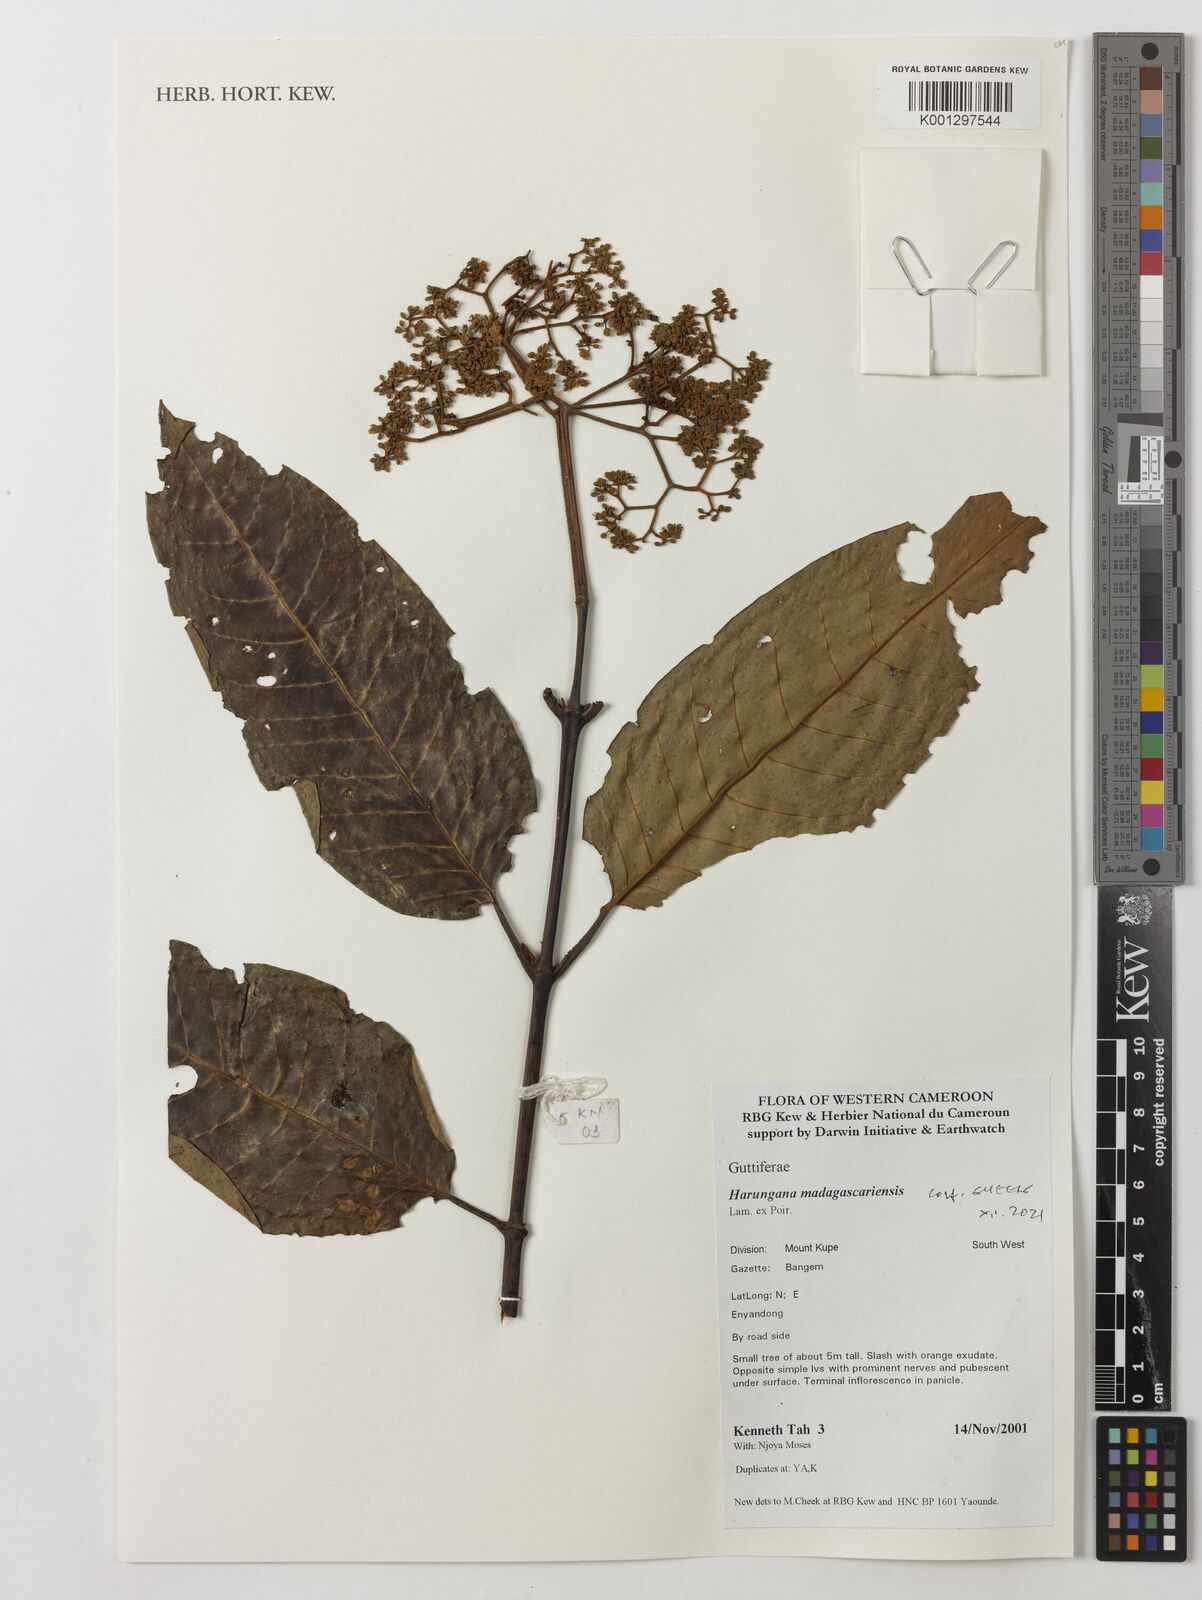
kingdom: Plantae
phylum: Tracheophyta
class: Magnoliopsida
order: Malpighiales
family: Hypericaceae
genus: Harungana
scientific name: Harungana madagascariensis
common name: Orange milktree
